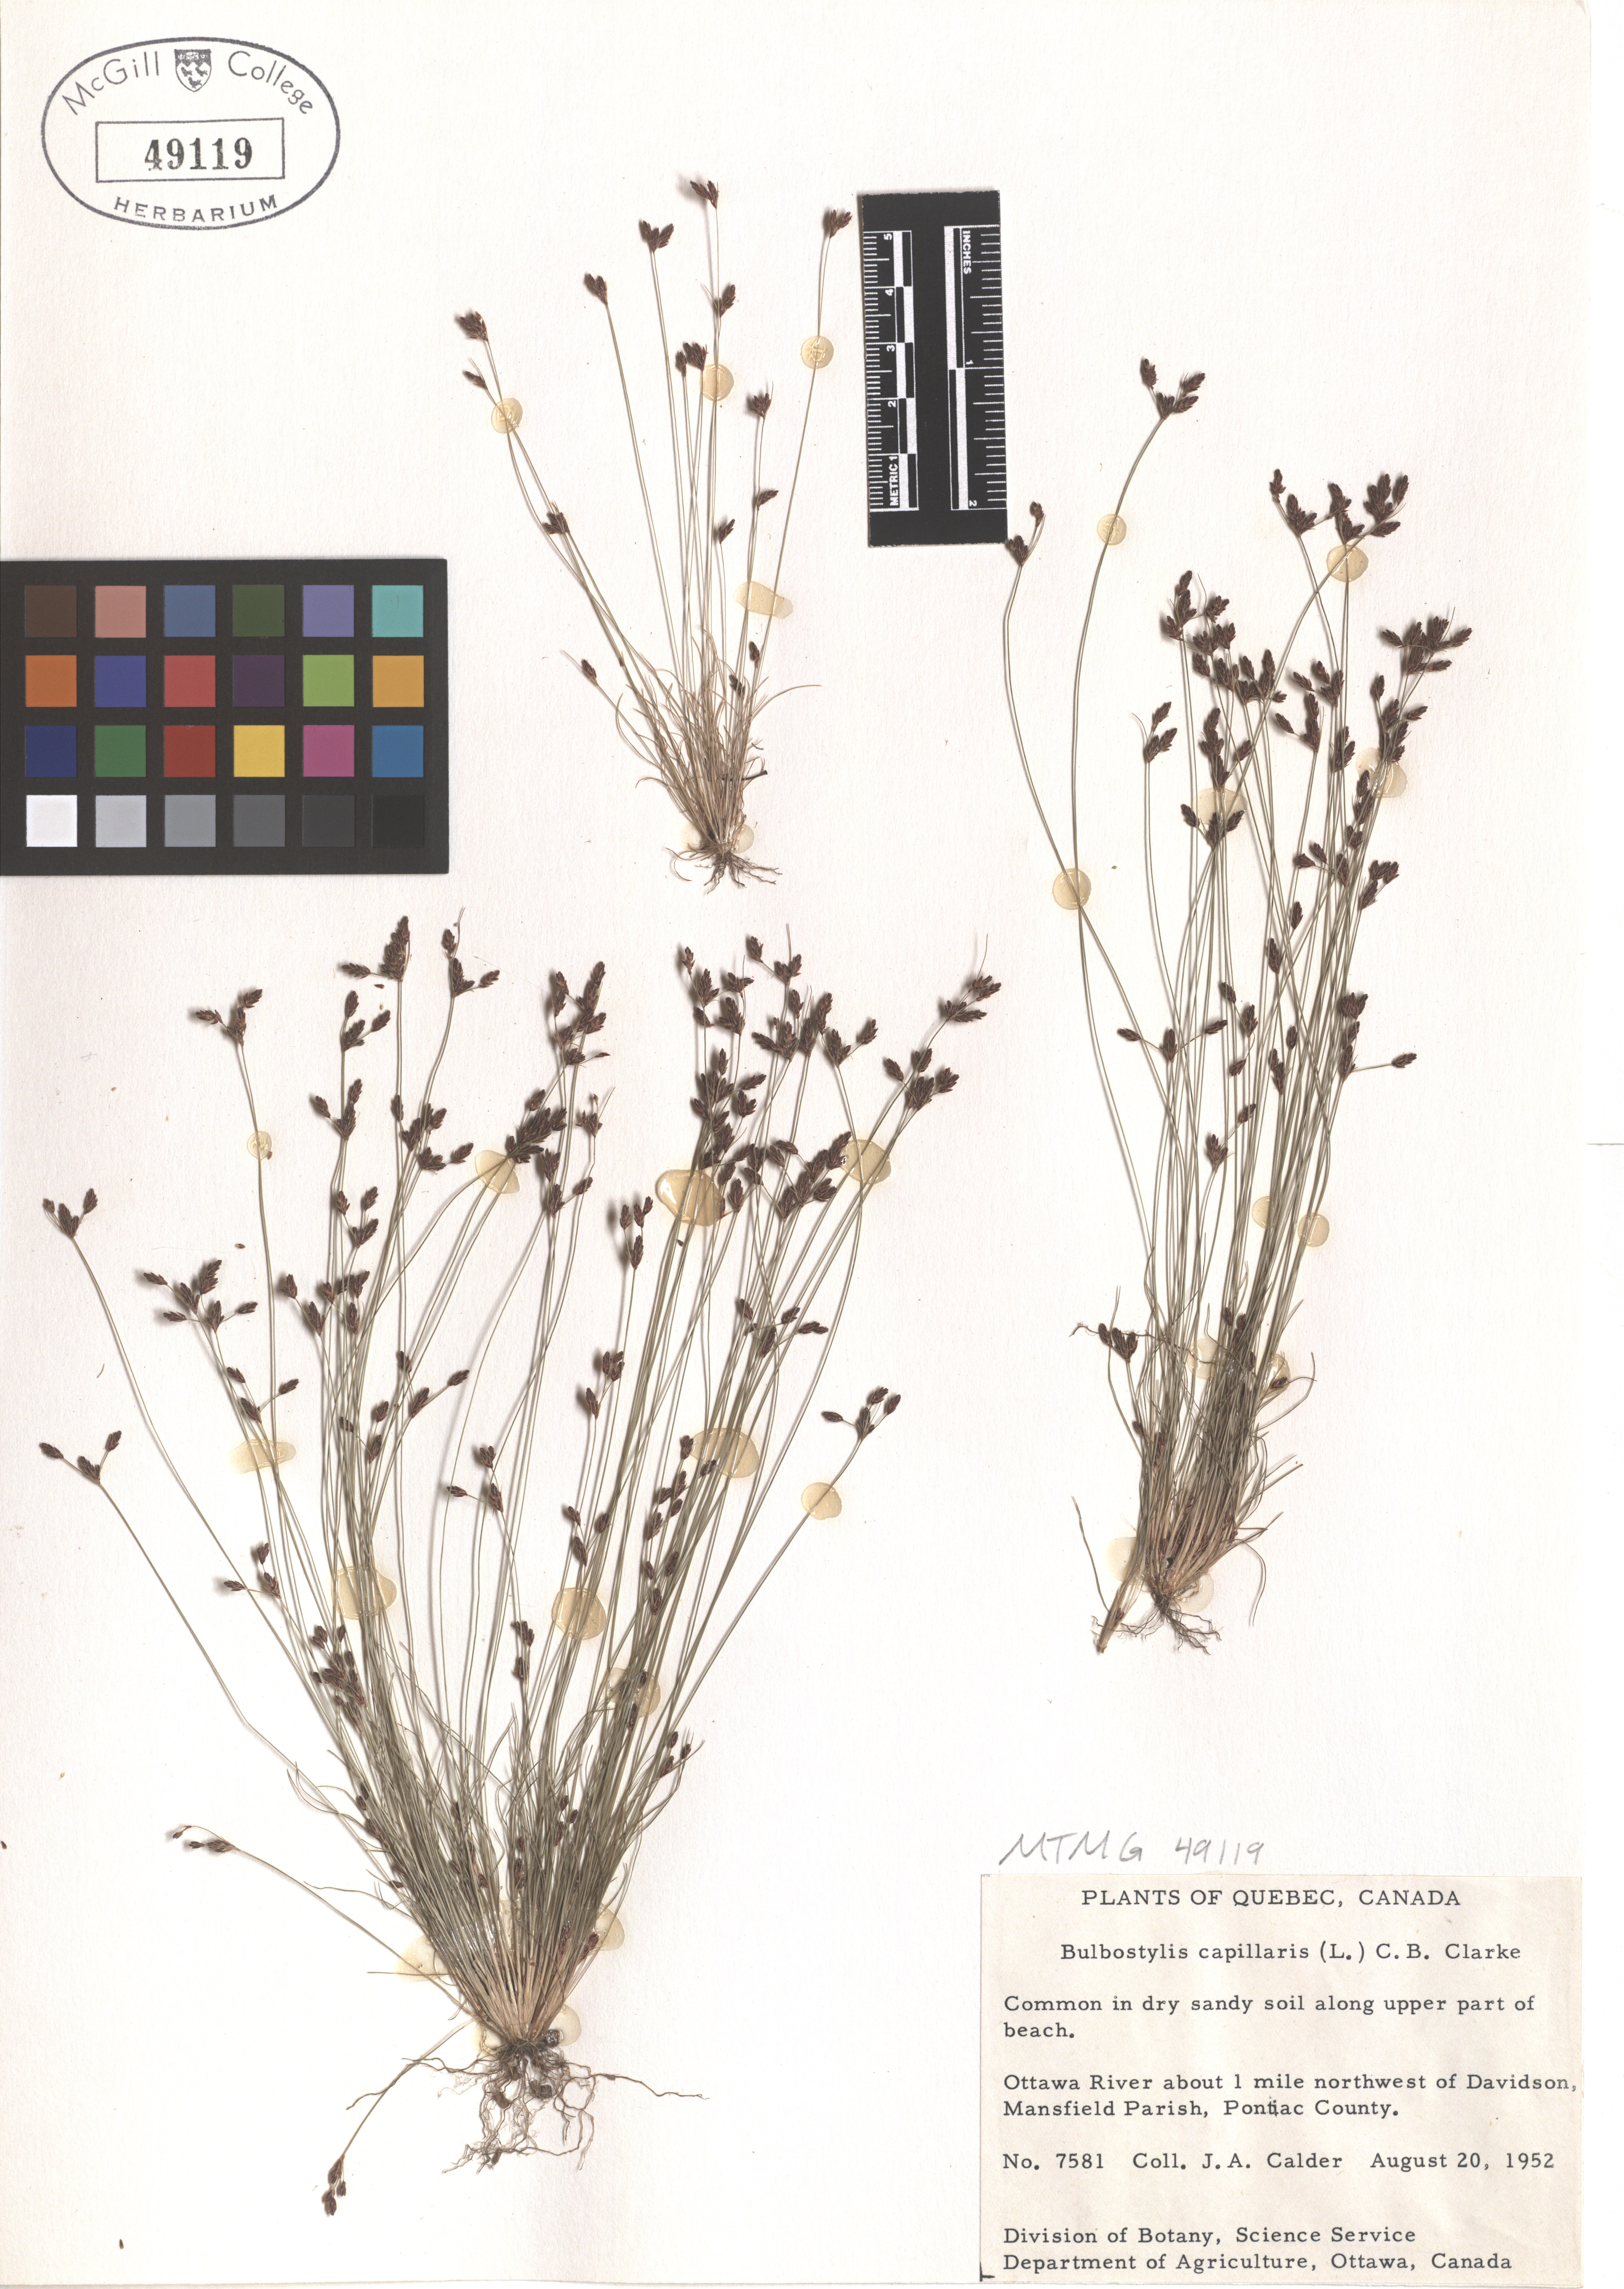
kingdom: Plantae
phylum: Tracheophyta
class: Liliopsida
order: Poales
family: Cyperaceae
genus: Bulbostylis
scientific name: Bulbostylis capillaris
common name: Densetuft hairsedge
